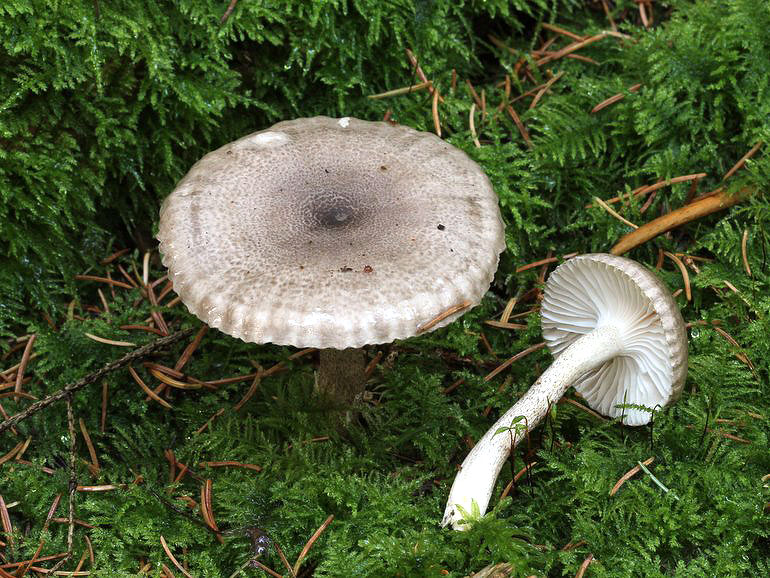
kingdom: Fungi
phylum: Basidiomycota
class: Agaricomycetes
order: Agaricales
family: Hygrophoraceae
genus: Hygrophorus
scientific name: Hygrophorus pustulatus
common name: mørkprikket sneglehat
